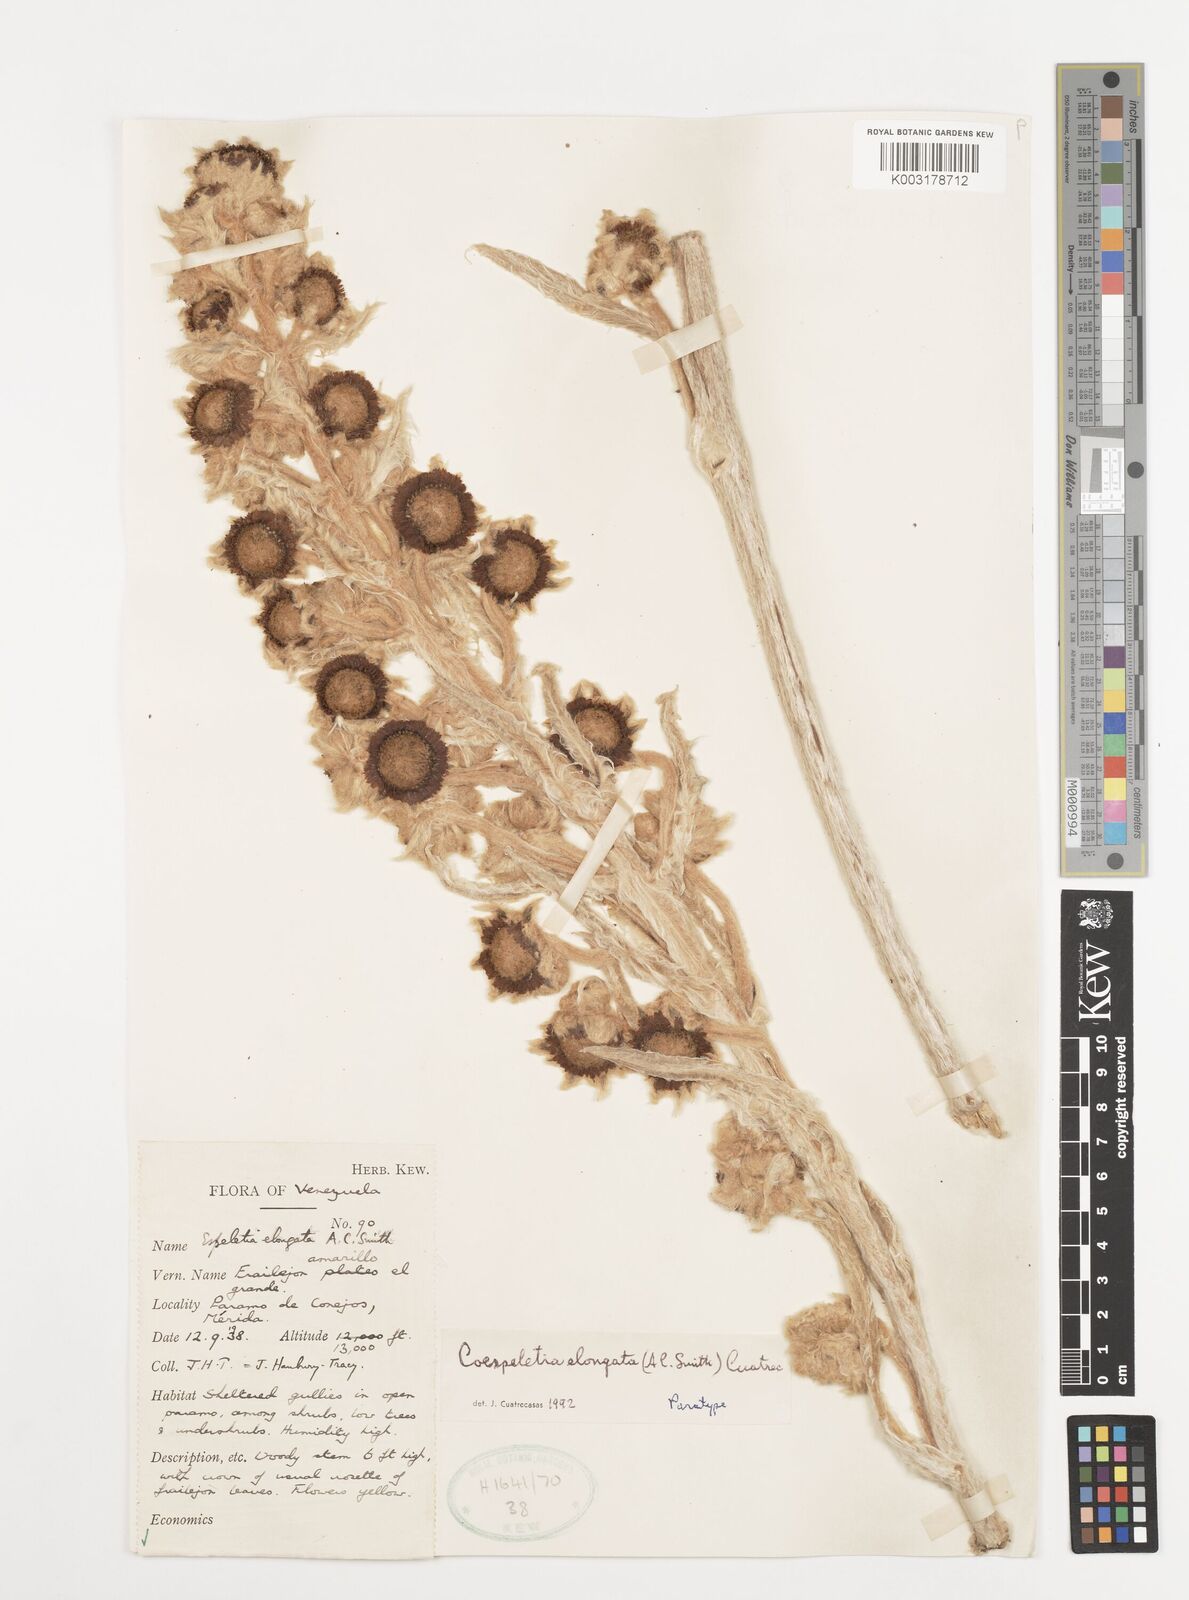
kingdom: Plantae
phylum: Tracheophyta
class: Magnoliopsida
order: Asterales
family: Asteraceae
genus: Espeletia
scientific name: Espeletia elongata
